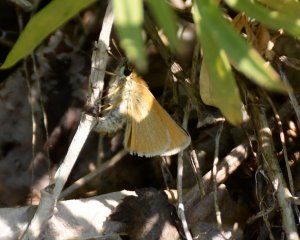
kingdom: Animalia
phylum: Arthropoda
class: Insecta
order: Lepidoptera
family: Hesperiidae
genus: Thymelicus
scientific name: Thymelicus lineola
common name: European Skipper
